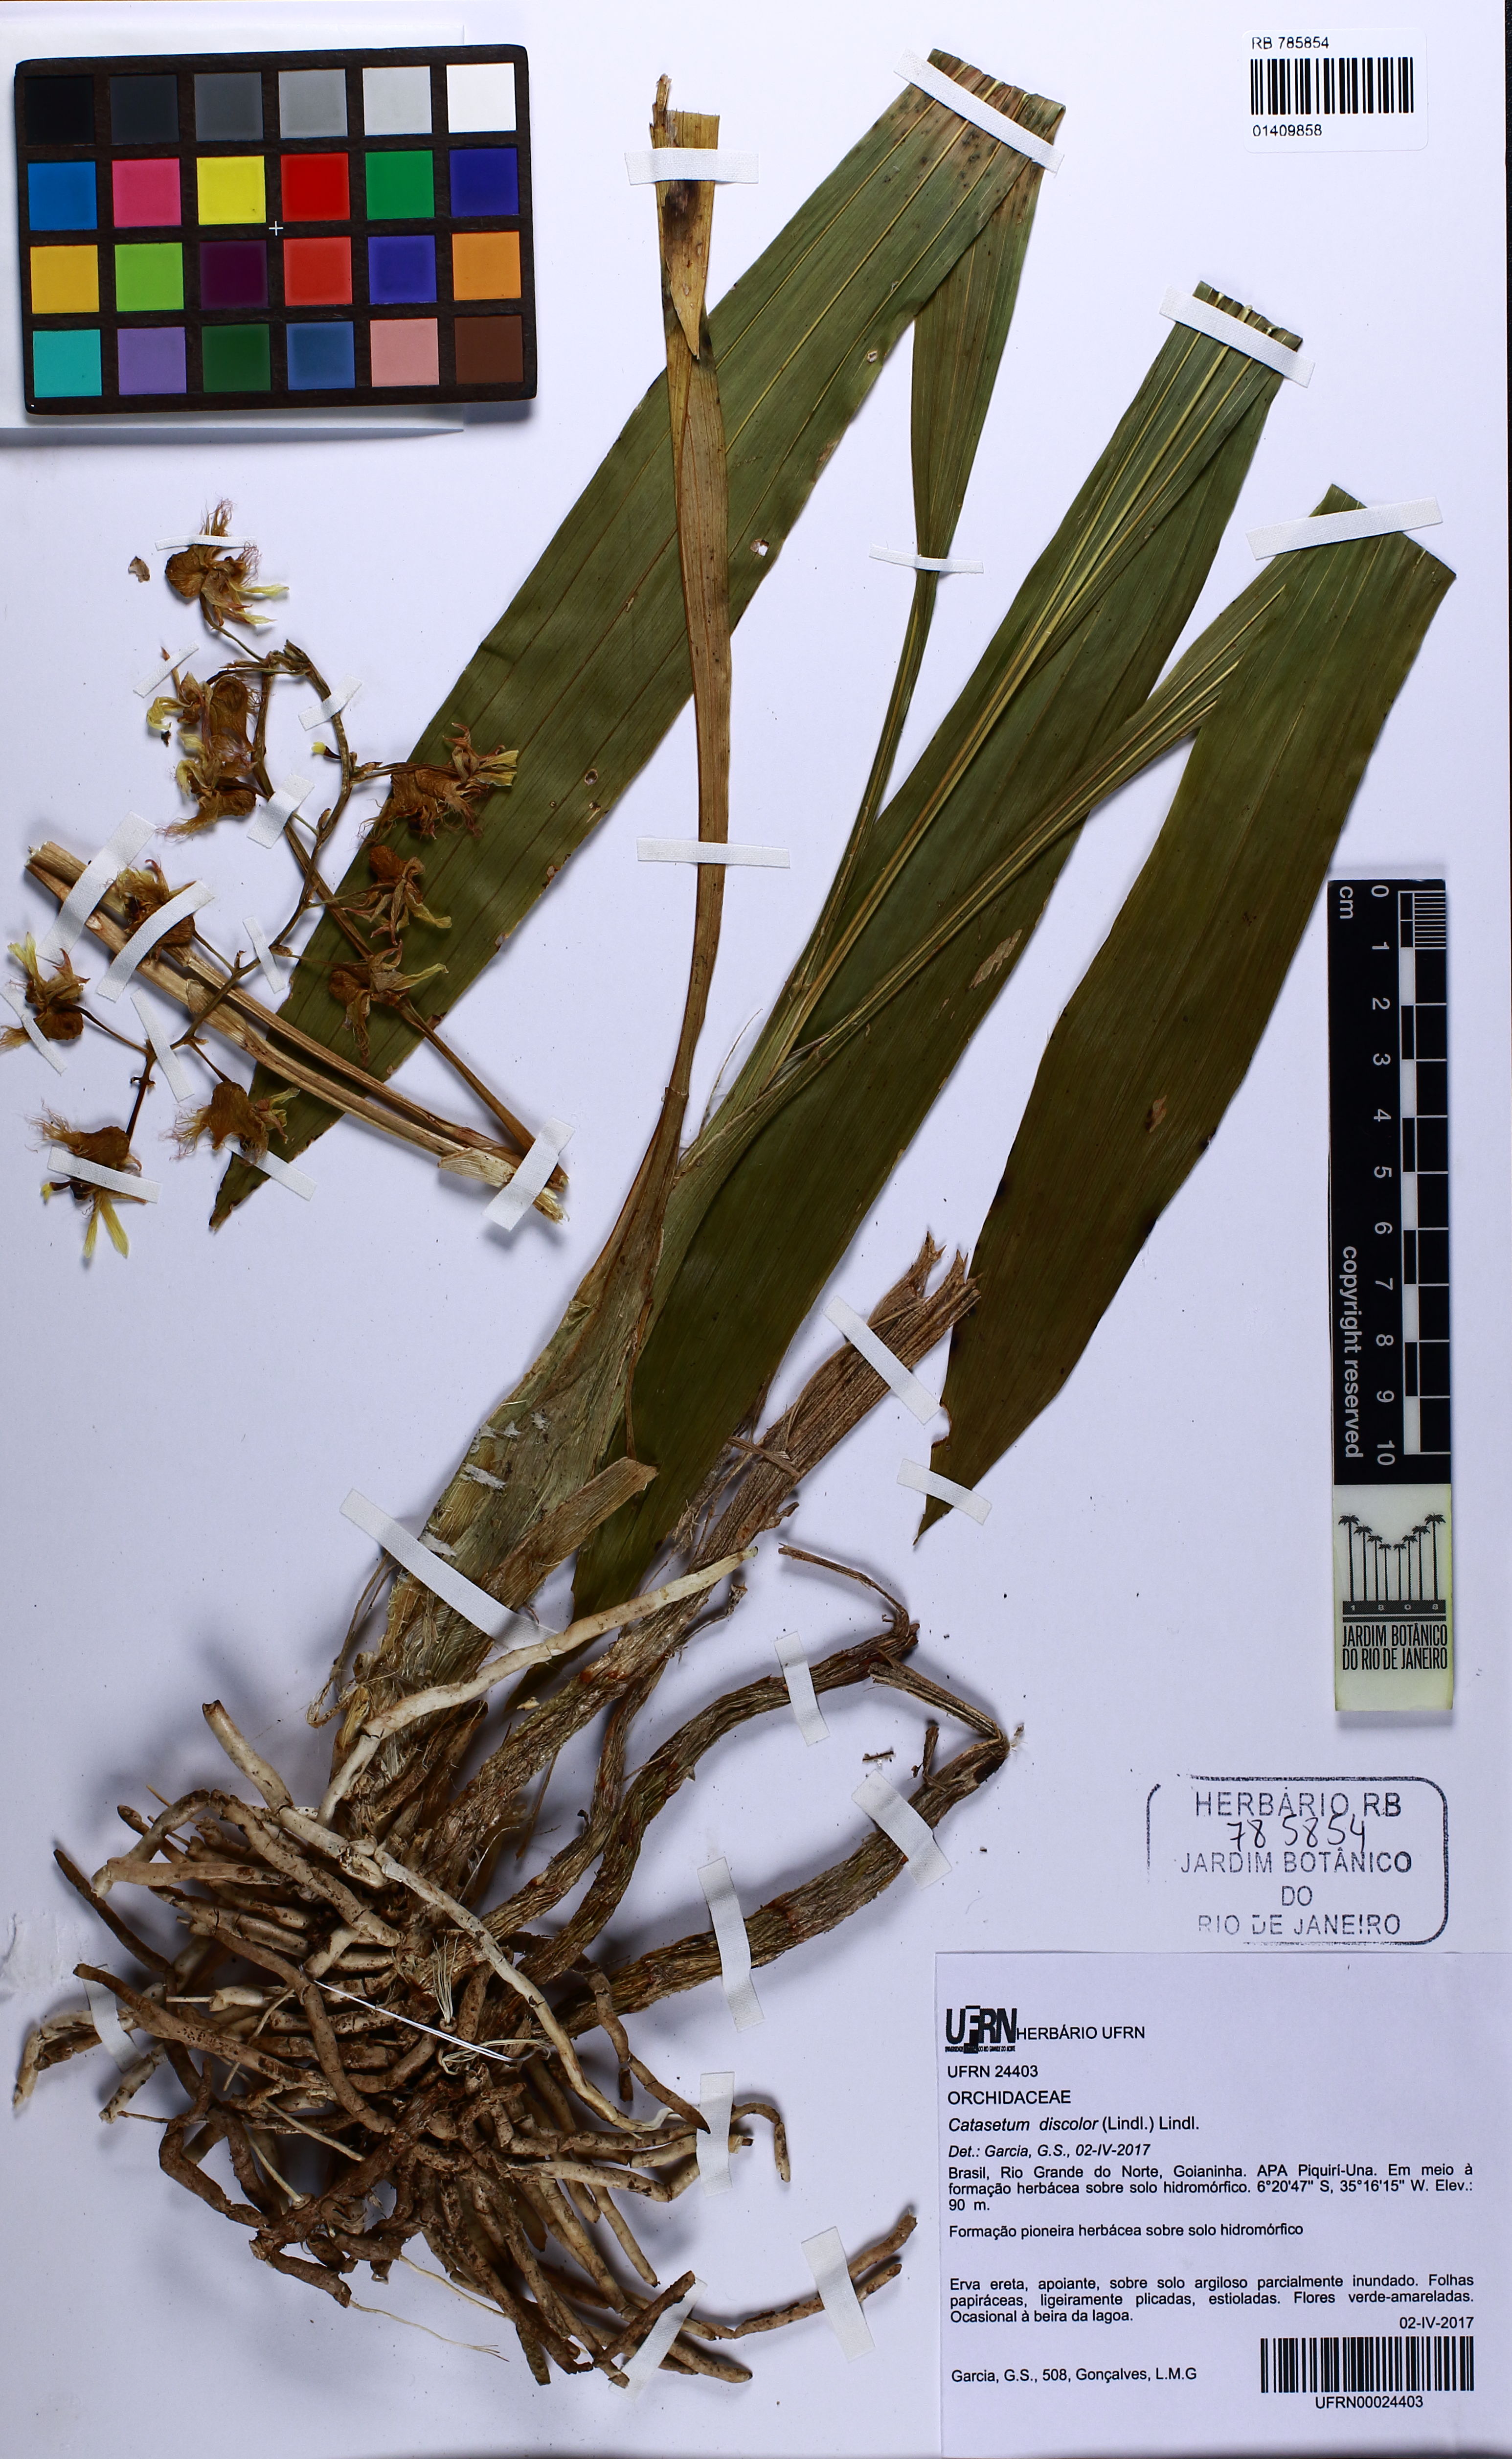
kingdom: Plantae
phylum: Tracheophyta
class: Liliopsida
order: Asparagales
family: Orchidaceae
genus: Catasetum
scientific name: Catasetum gardneri
